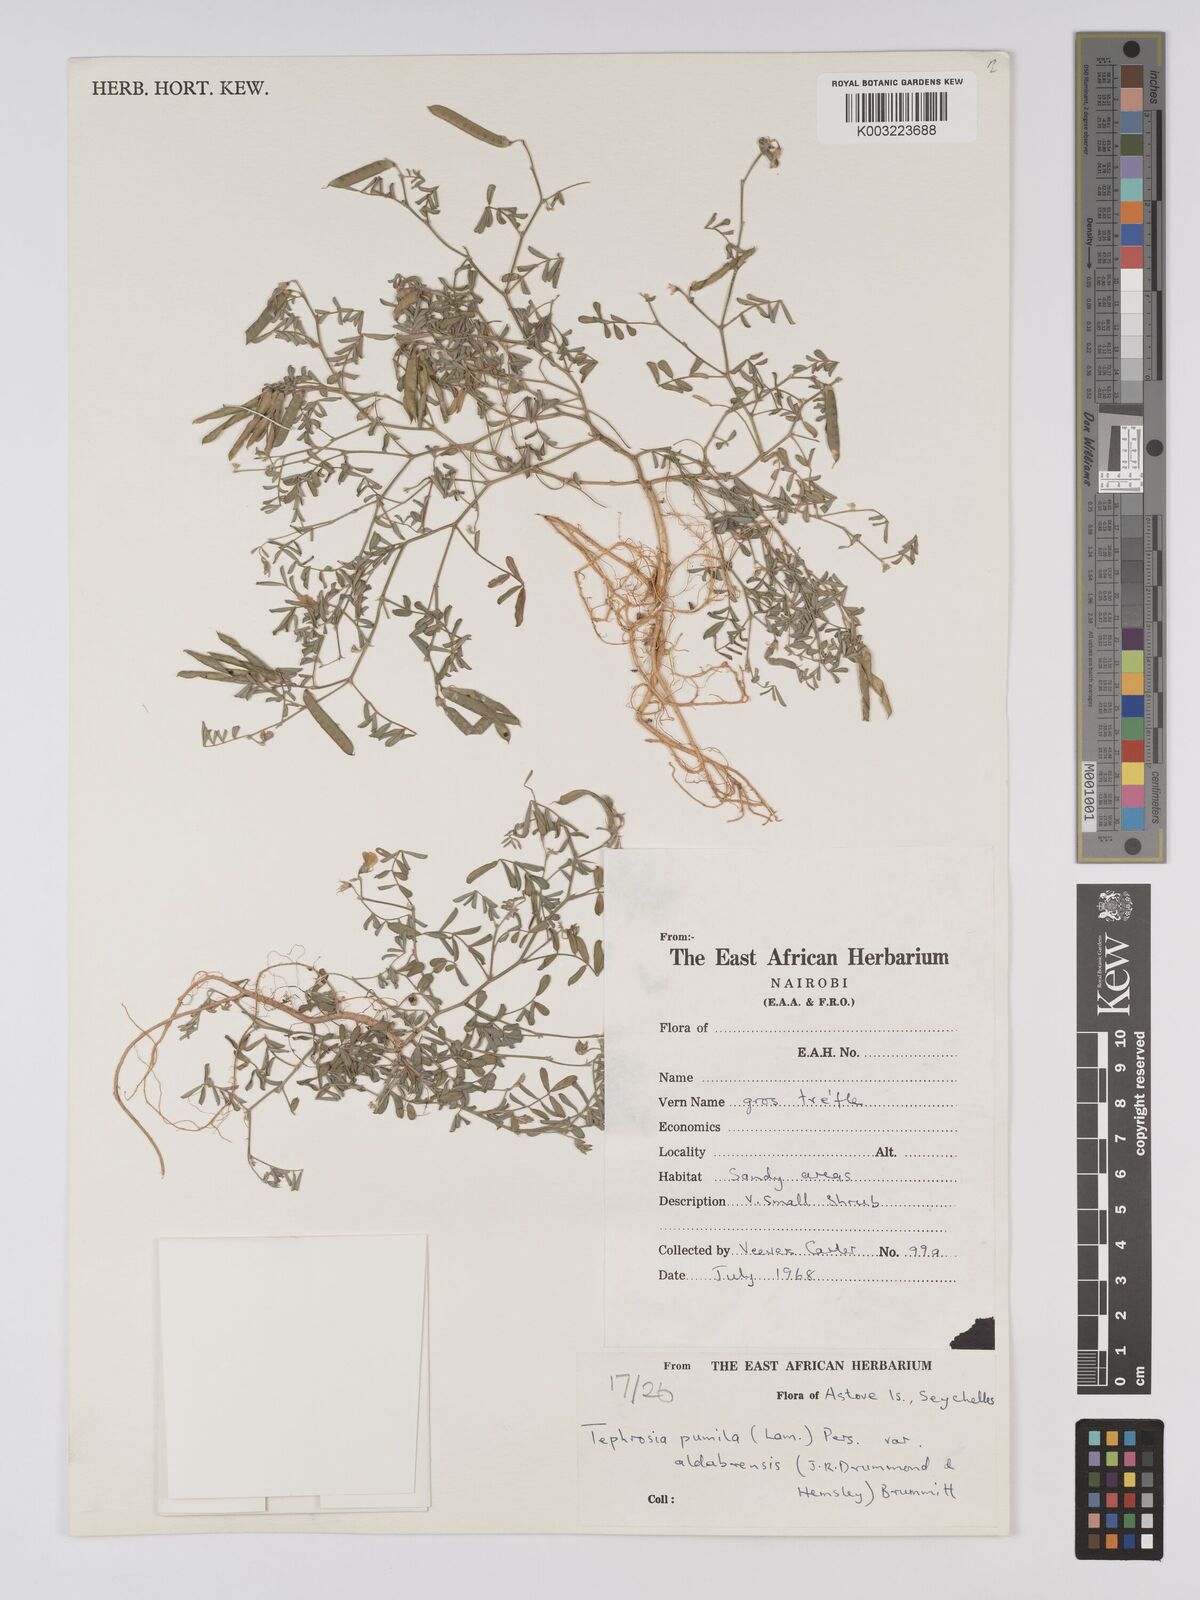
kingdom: Plantae
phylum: Tracheophyta
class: Magnoliopsida
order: Fabales
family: Fabaceae
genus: Tephrosia
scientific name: Tephrosia pumila
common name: Indigo sauvage
